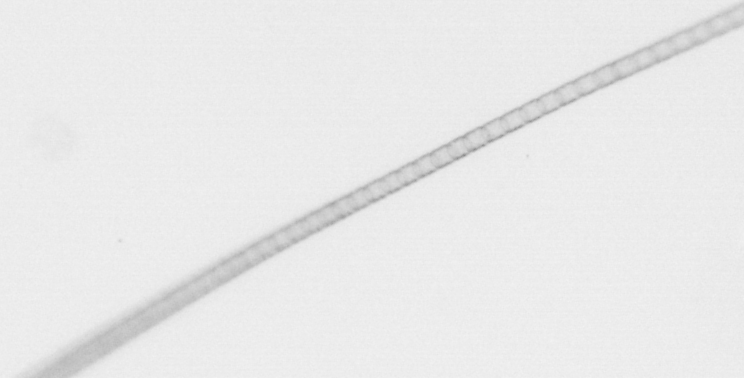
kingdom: Chromista
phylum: Ochrophyta
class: Bacillariophyceae
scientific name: Bacillariophyceae
